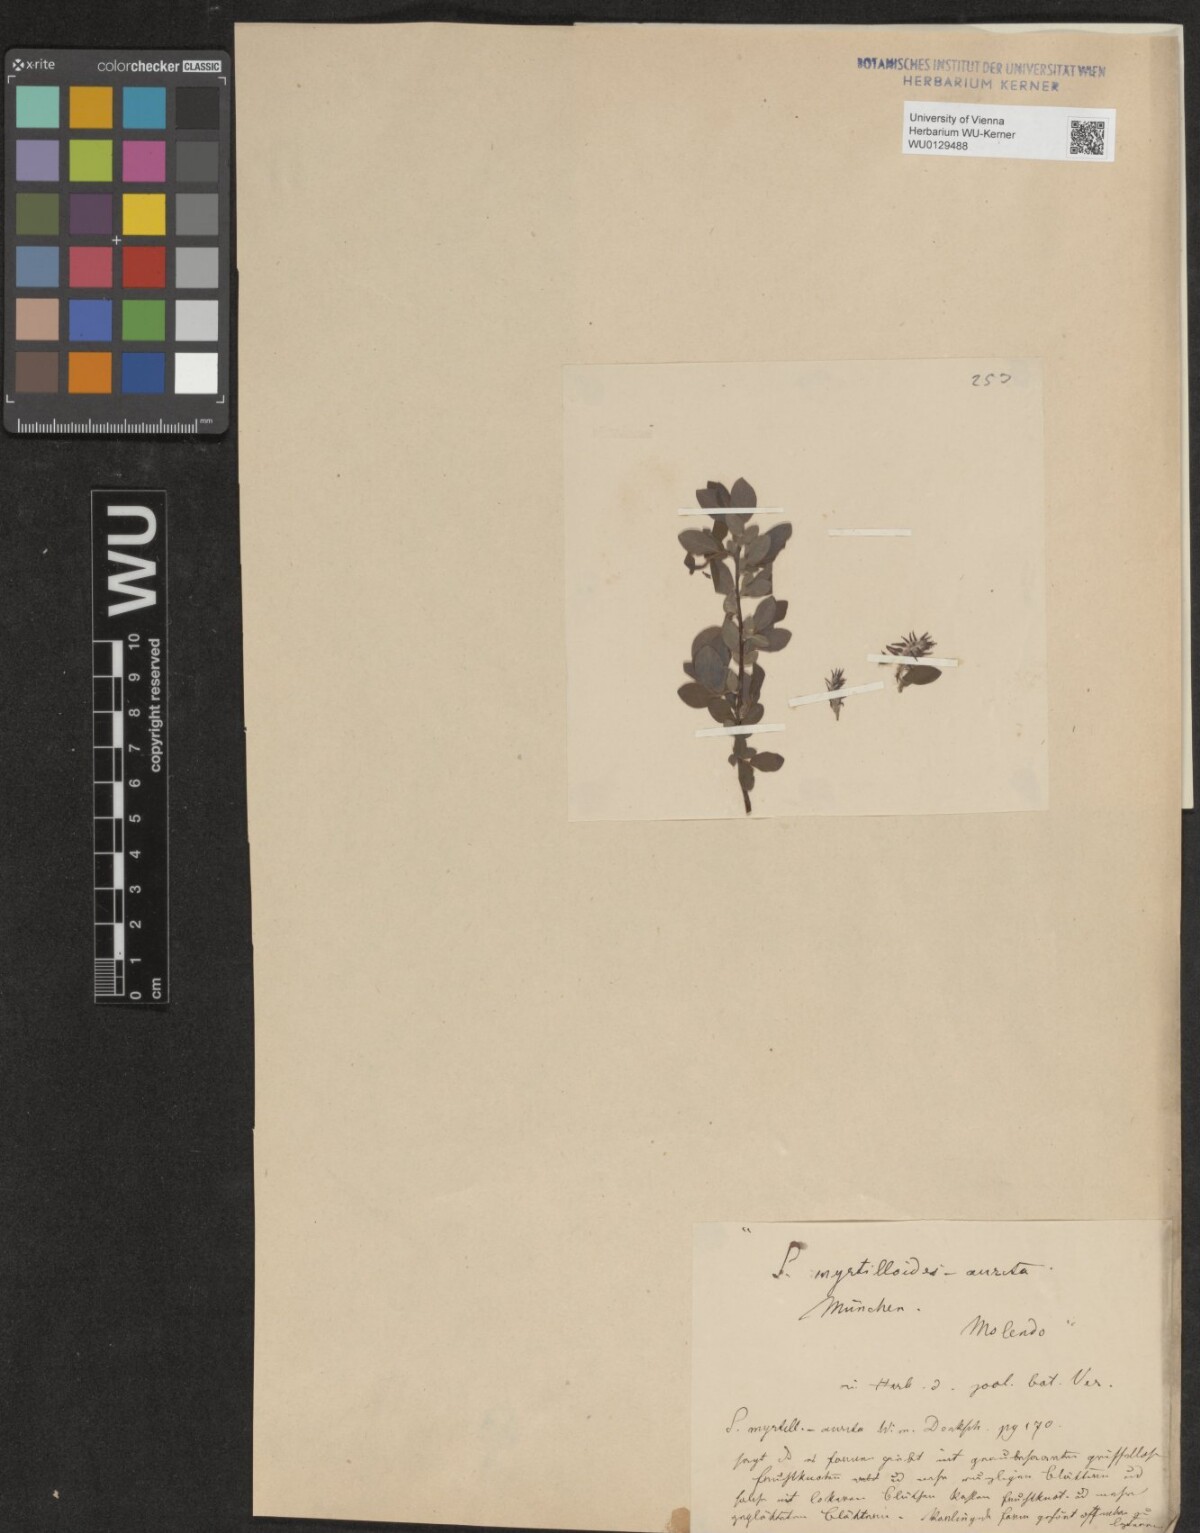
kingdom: Plantae
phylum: Tracheophyta
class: Magnoliopsida
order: Malpighiales
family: Salicaceae
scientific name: Salicaceae
